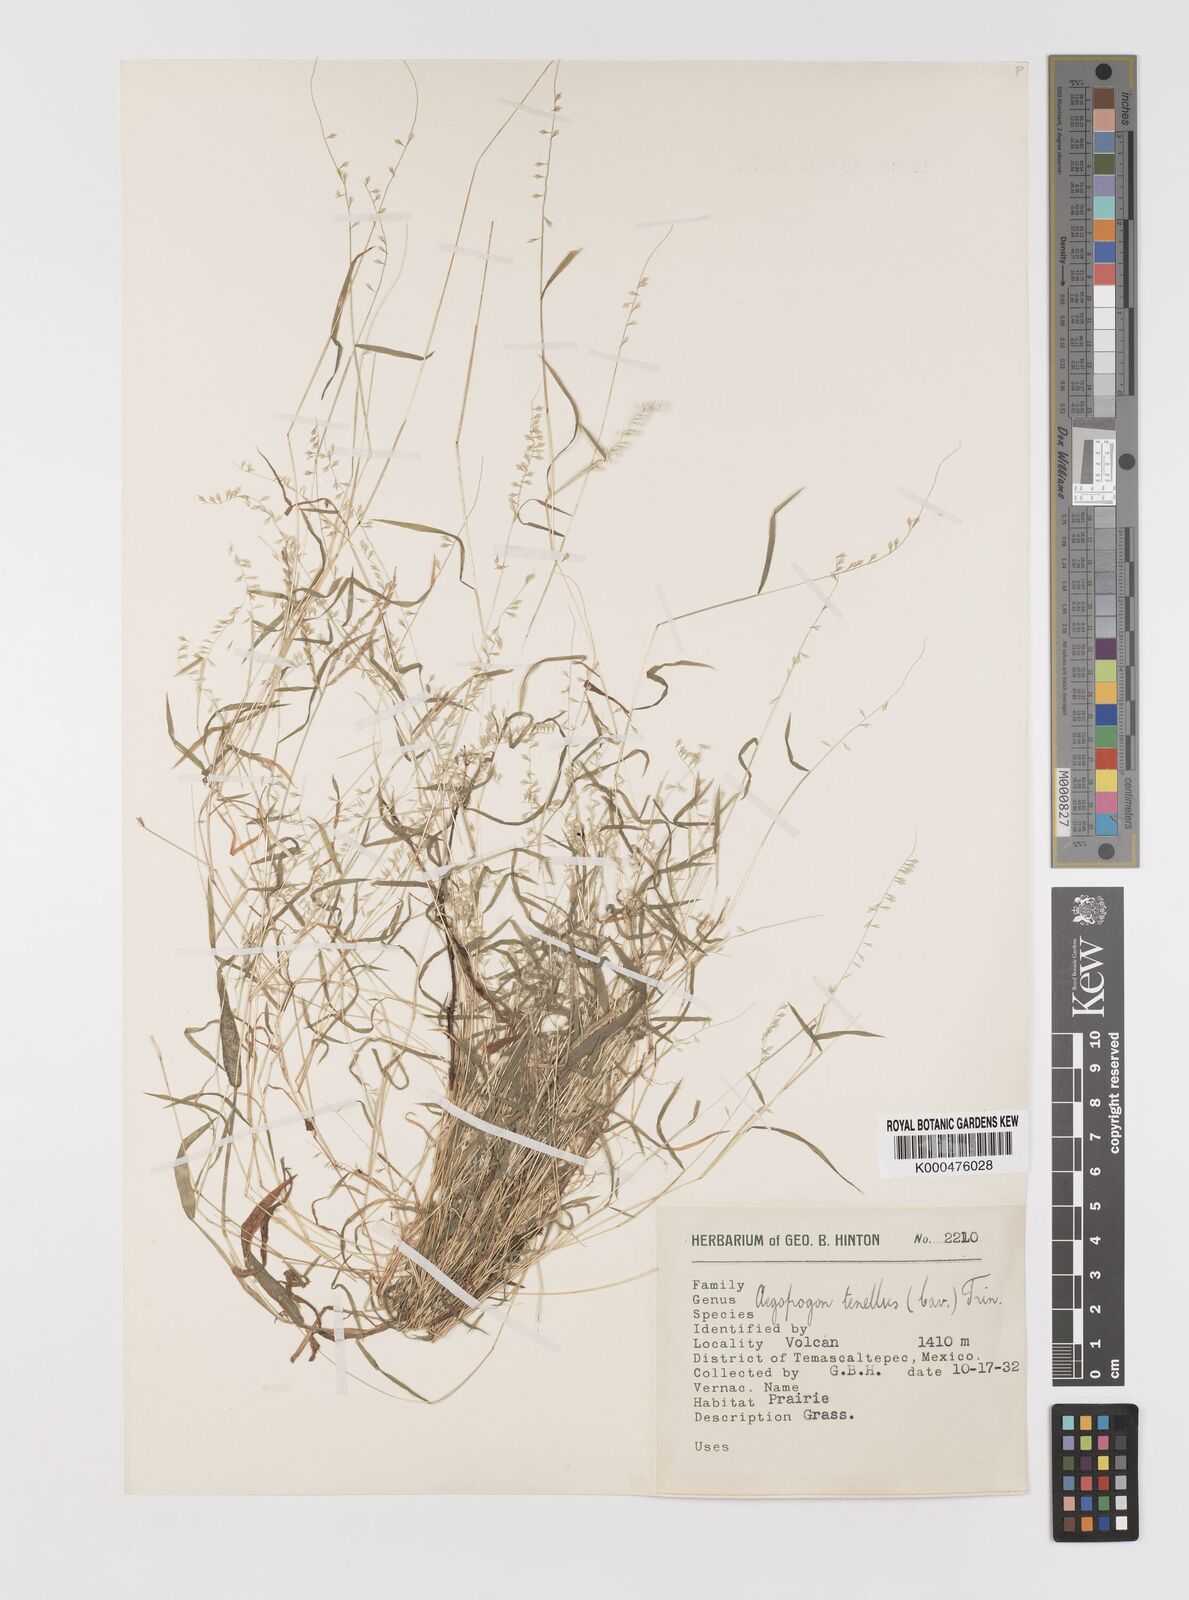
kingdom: Plantae
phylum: Tracheophyta
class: Liliopsida
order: Poales
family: Poaceae
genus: Muhlenbergia
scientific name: Muhlenbergia uniseta
